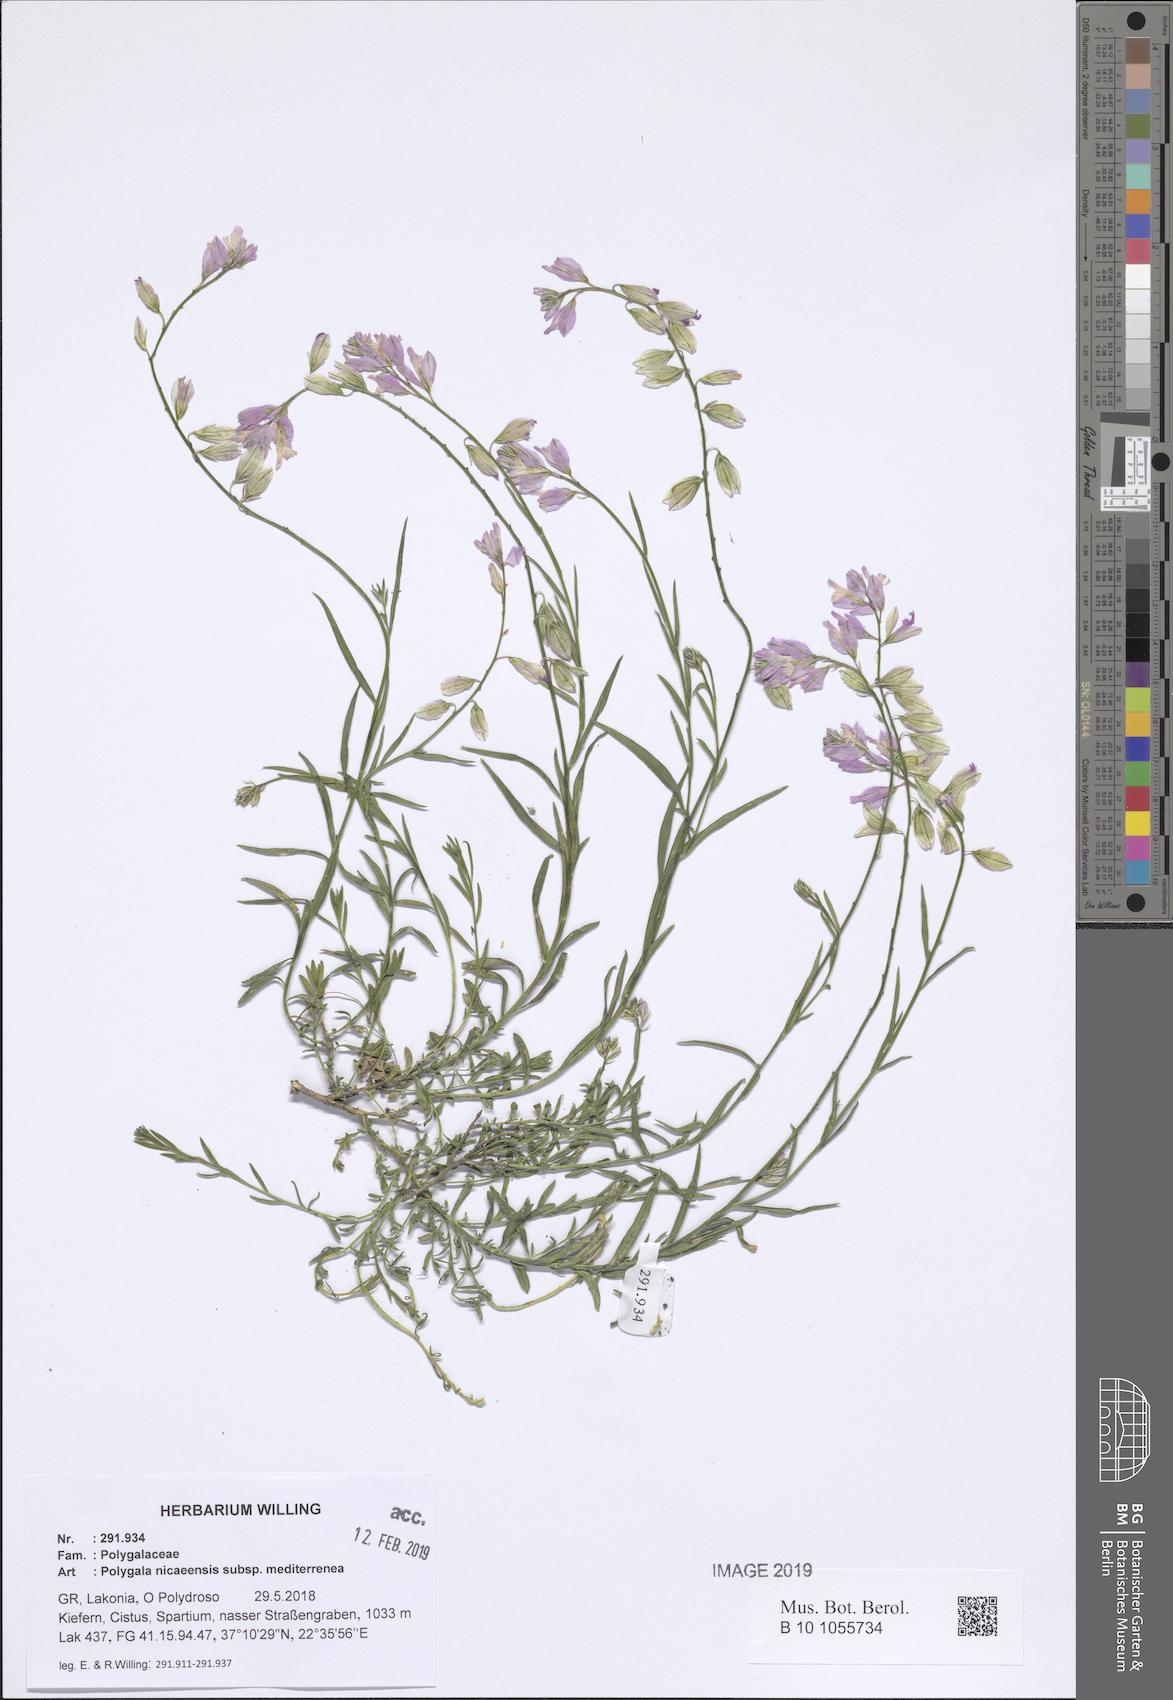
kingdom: Plantae
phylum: Tracheophyta
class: Magnoliopsida
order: Fabales
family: Polygalaceae
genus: Polygala
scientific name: Polygala nicaeensis
